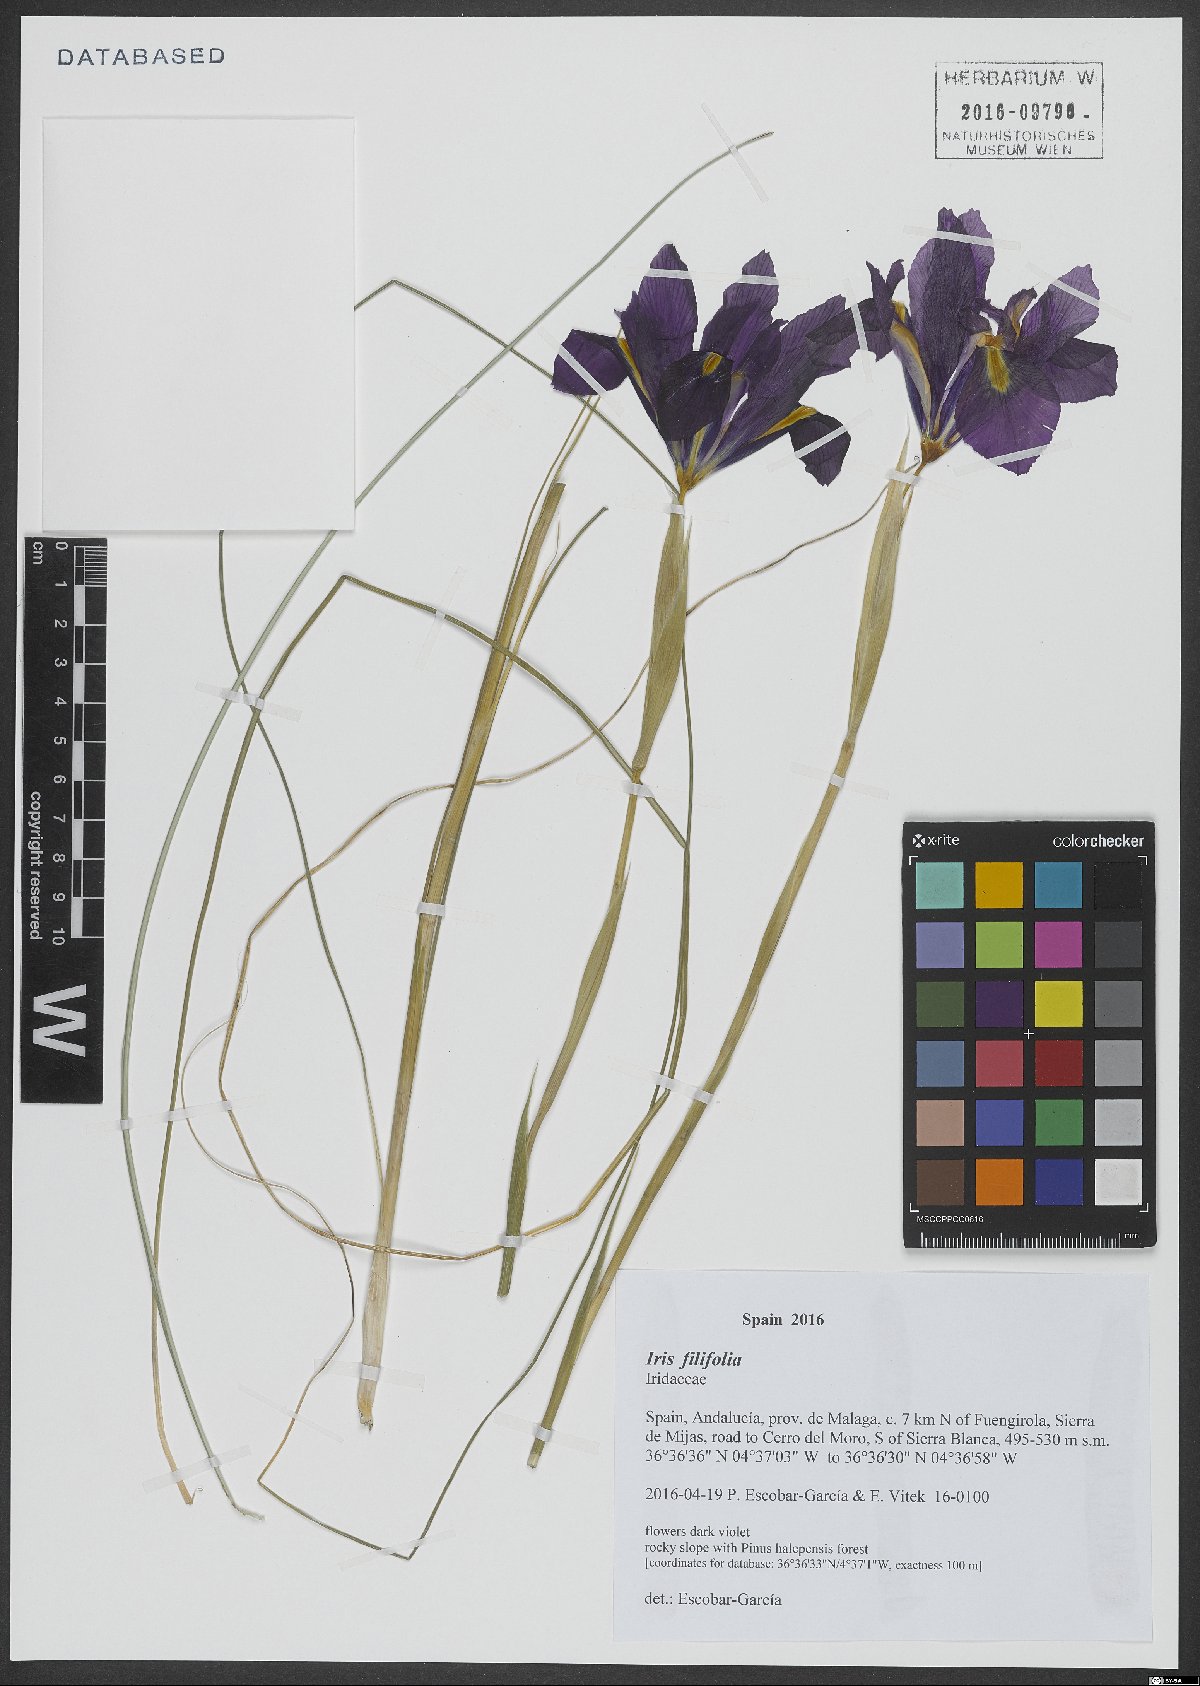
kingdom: Plantae
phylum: Tracheophyta
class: Liliopsida
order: Asparagales
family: Iridaceae
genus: Iris
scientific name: Iris longiscapa
